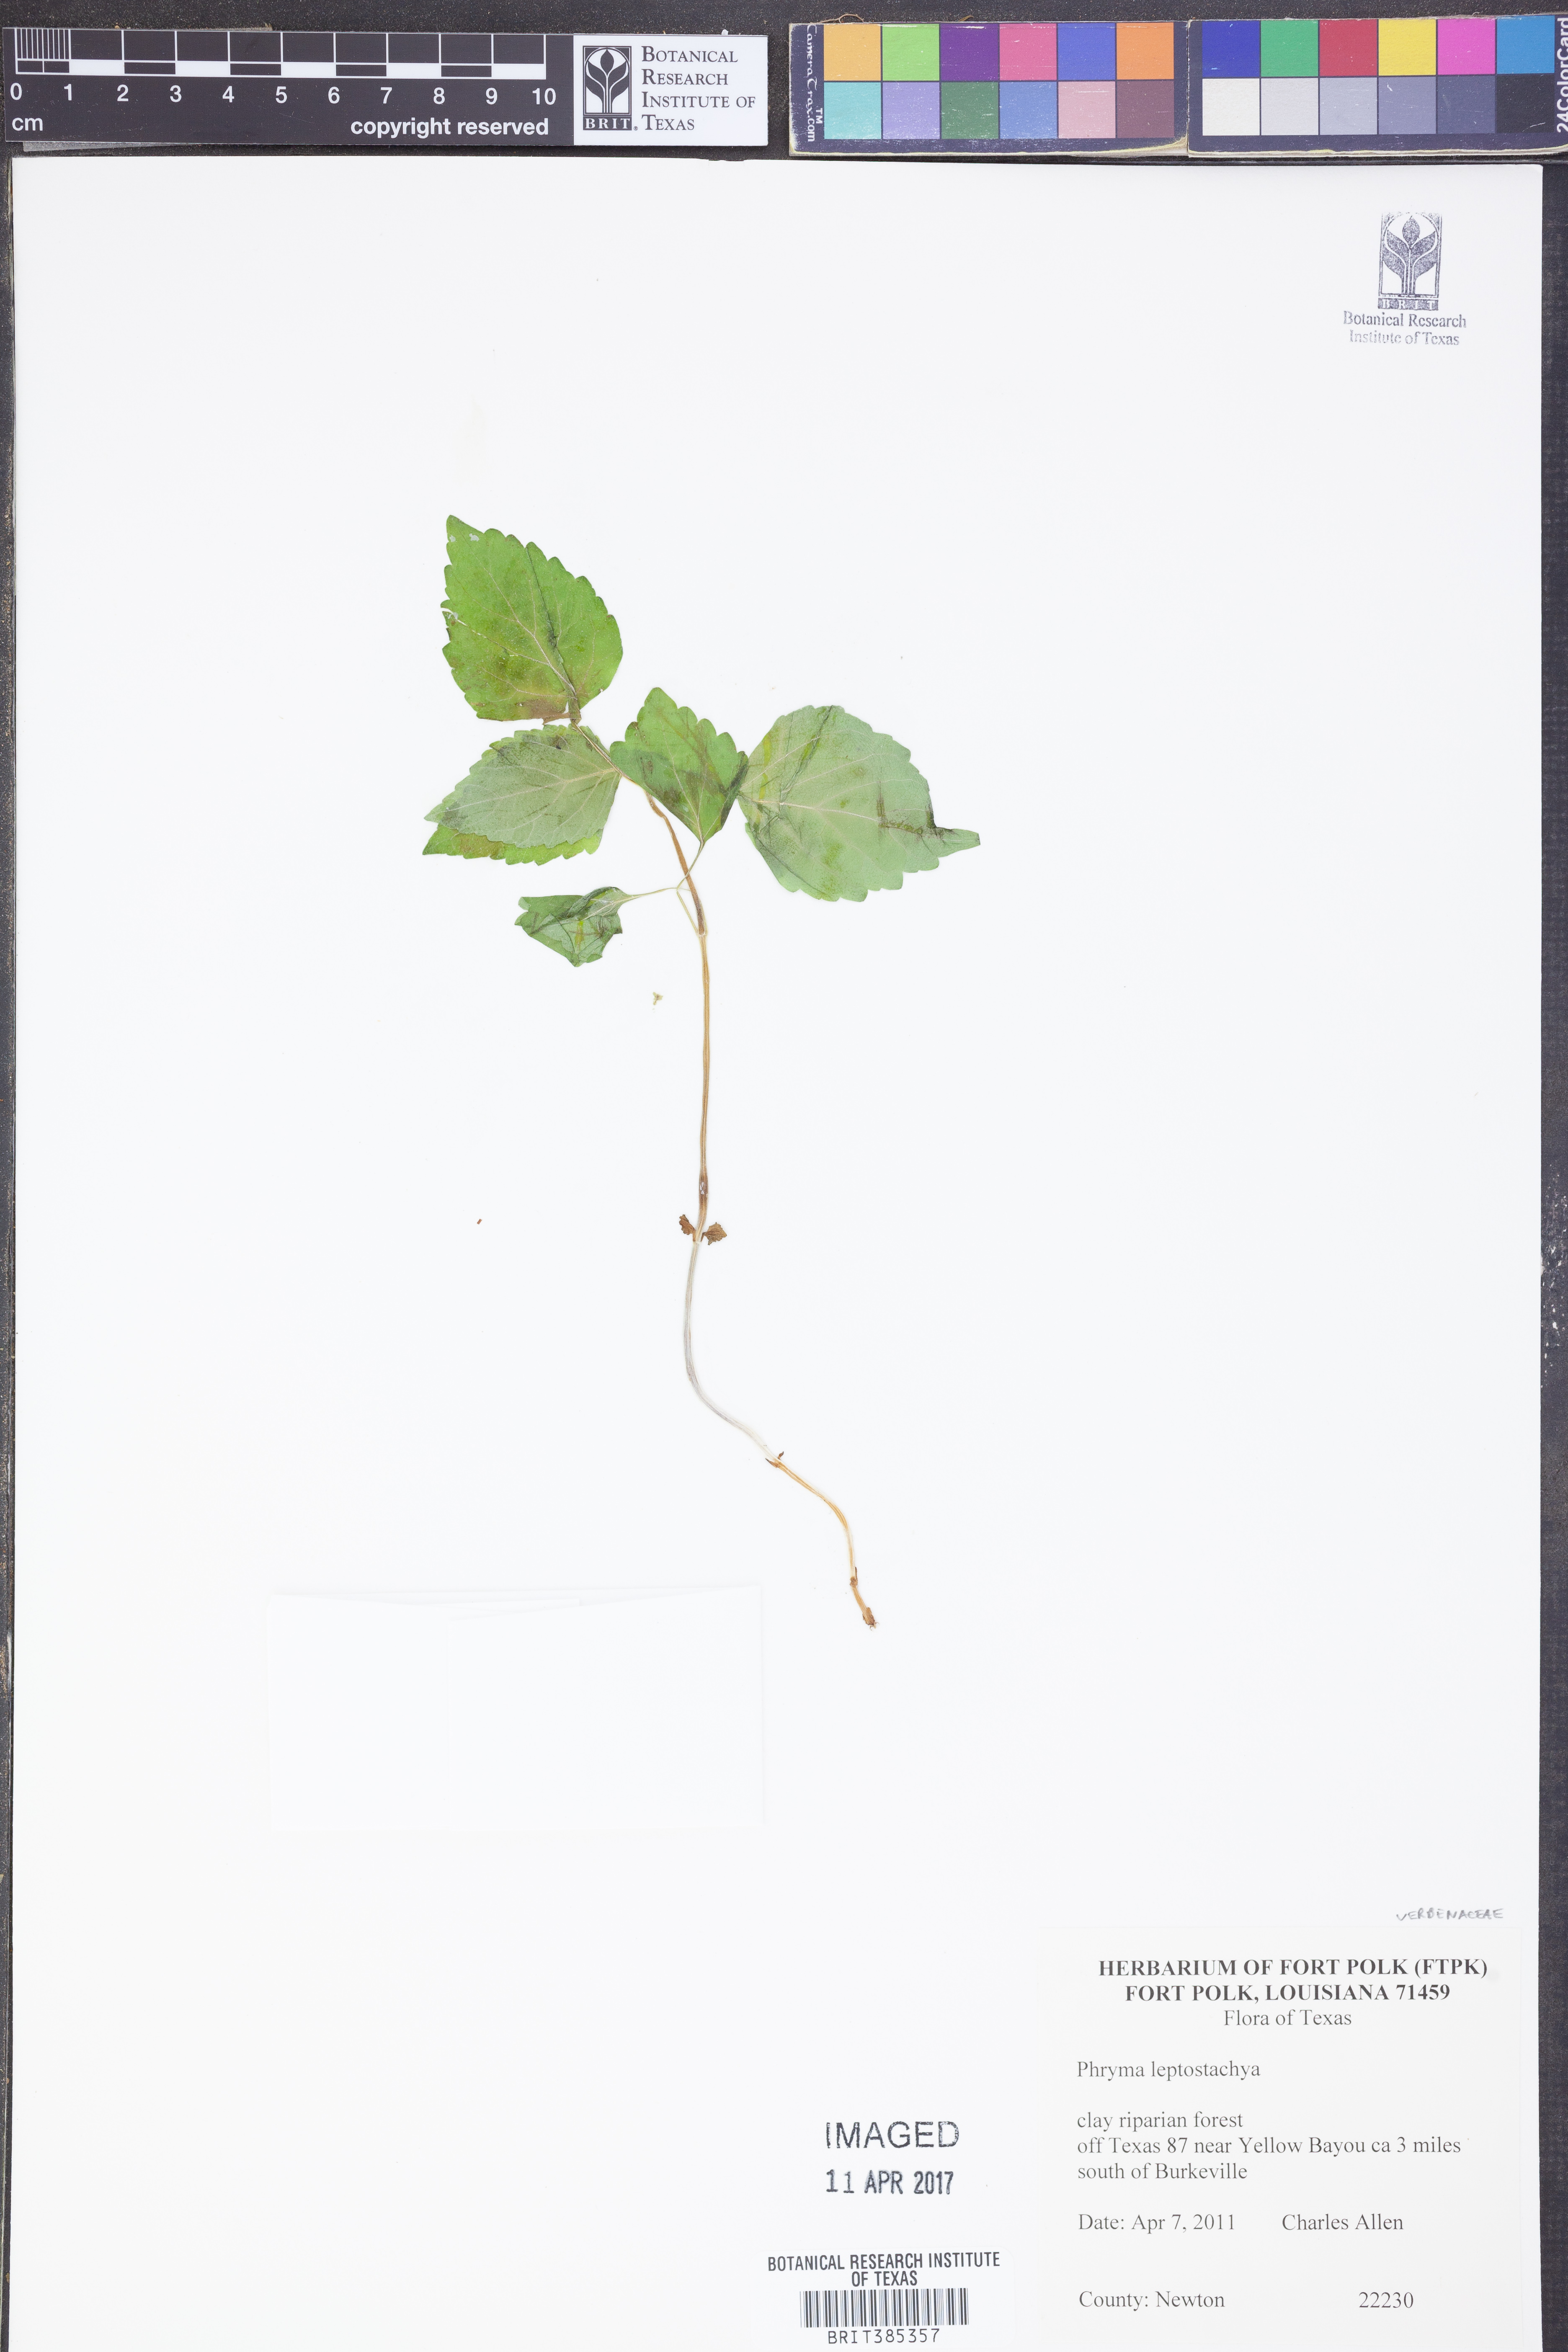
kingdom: Plantae
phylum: Tracheophyta
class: Magnoliopsida
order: Lamiales
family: Phrymaceae
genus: Phryma
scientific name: Phryma leptostachya
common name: American lopseed
